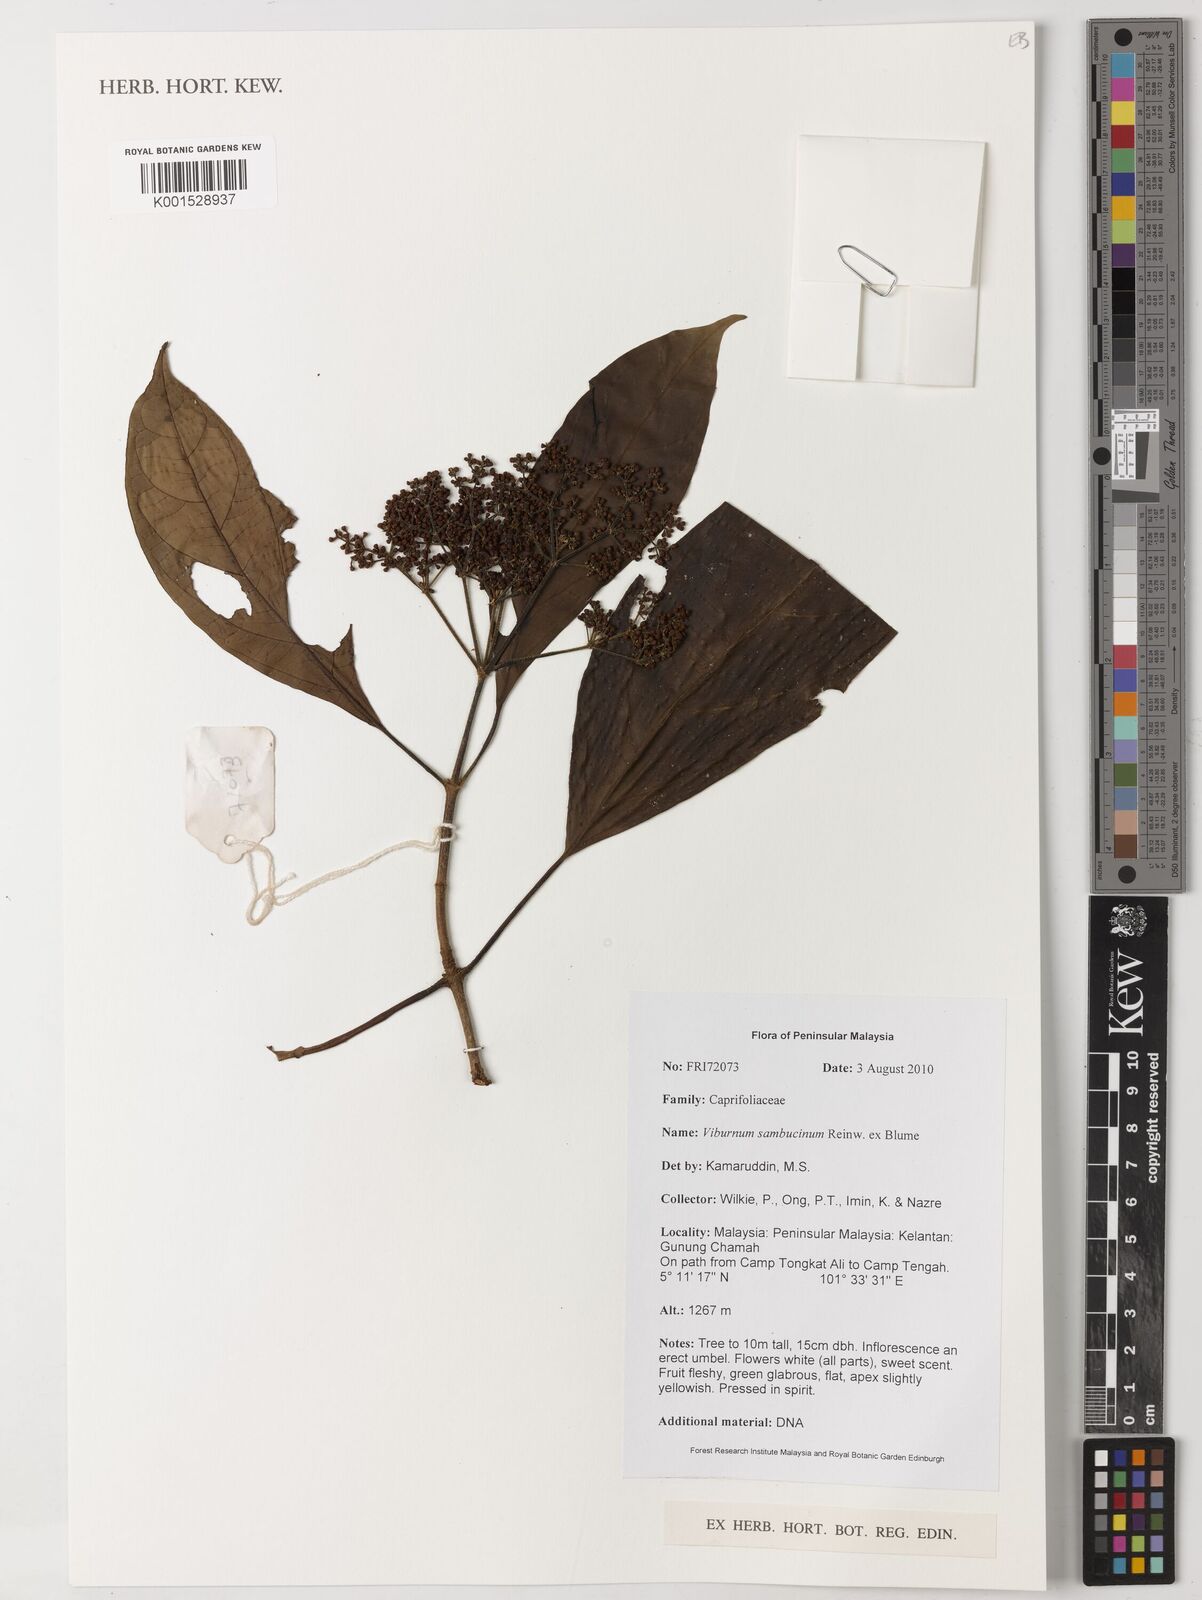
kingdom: Plantae
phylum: Tracheophyta
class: Magnoliopsida
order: Dipsacales
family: Viburnaceae
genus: Viburnum
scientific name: Viburnum sambucinum
